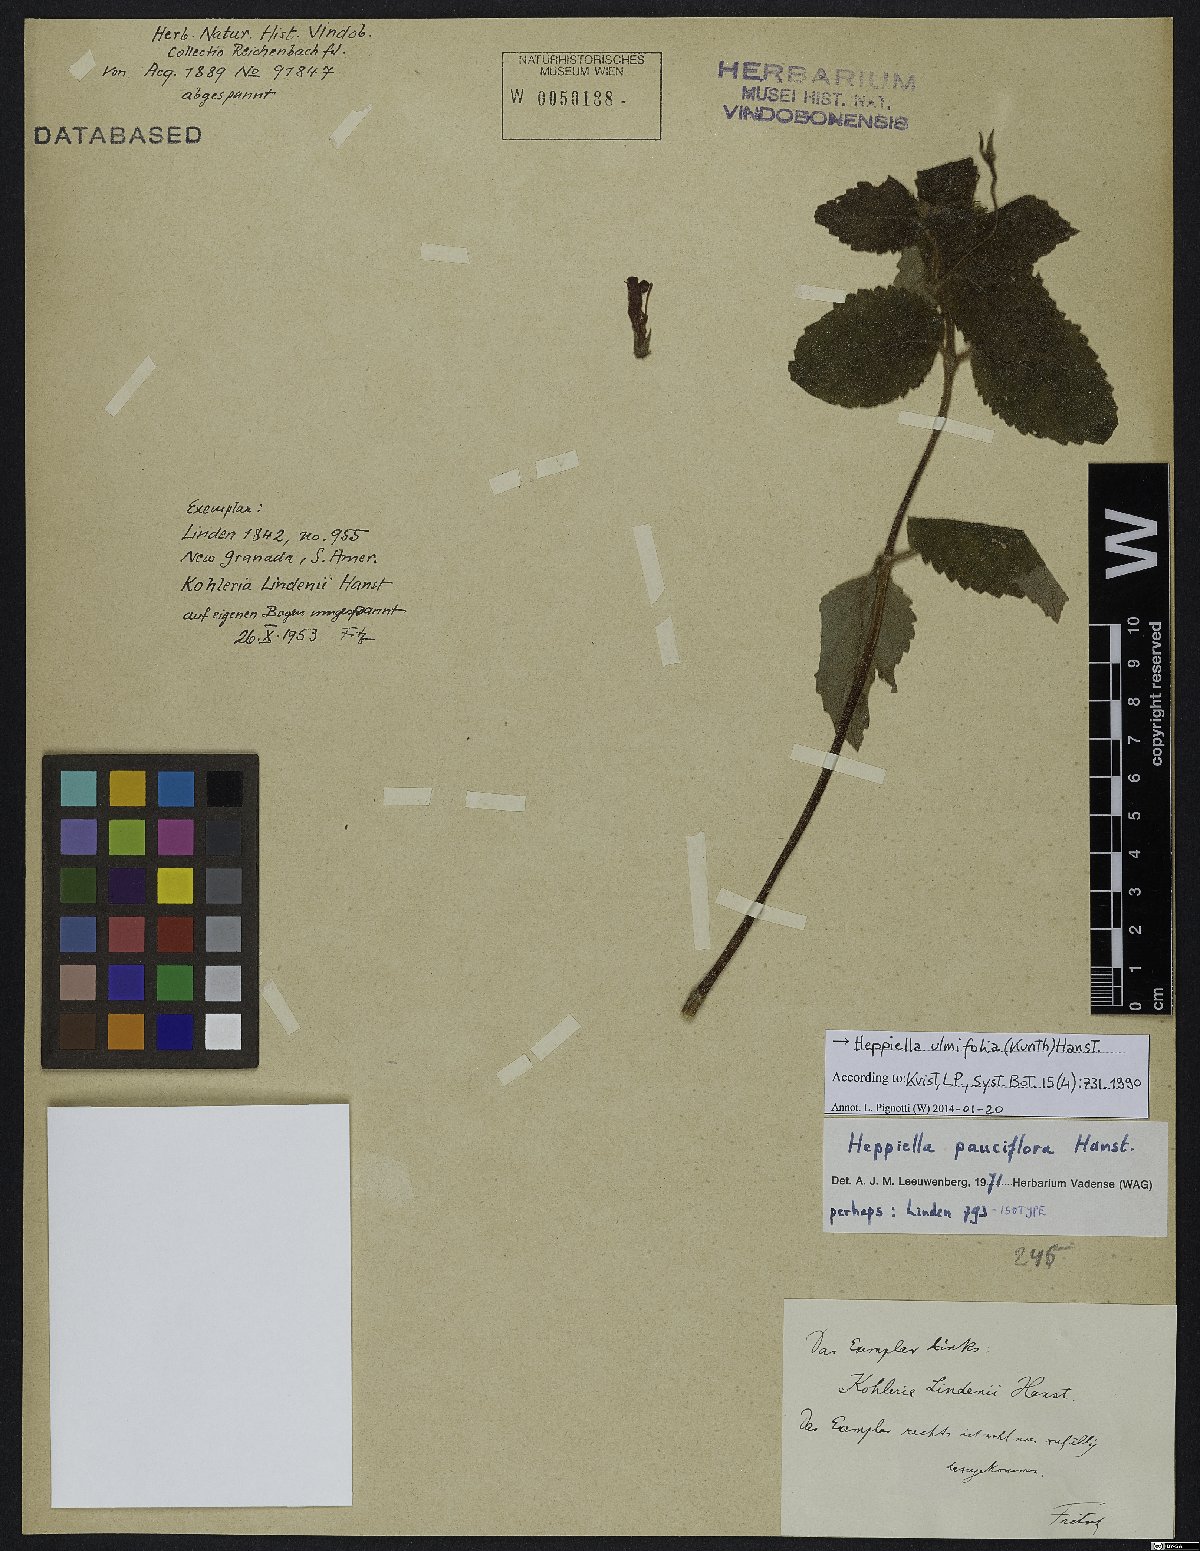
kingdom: Plantae
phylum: Tracheophyta
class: Magnoliopsida
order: Lamiales
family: Gesneriaceae
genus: Heppiella
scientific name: Heppiella ulmifolia
